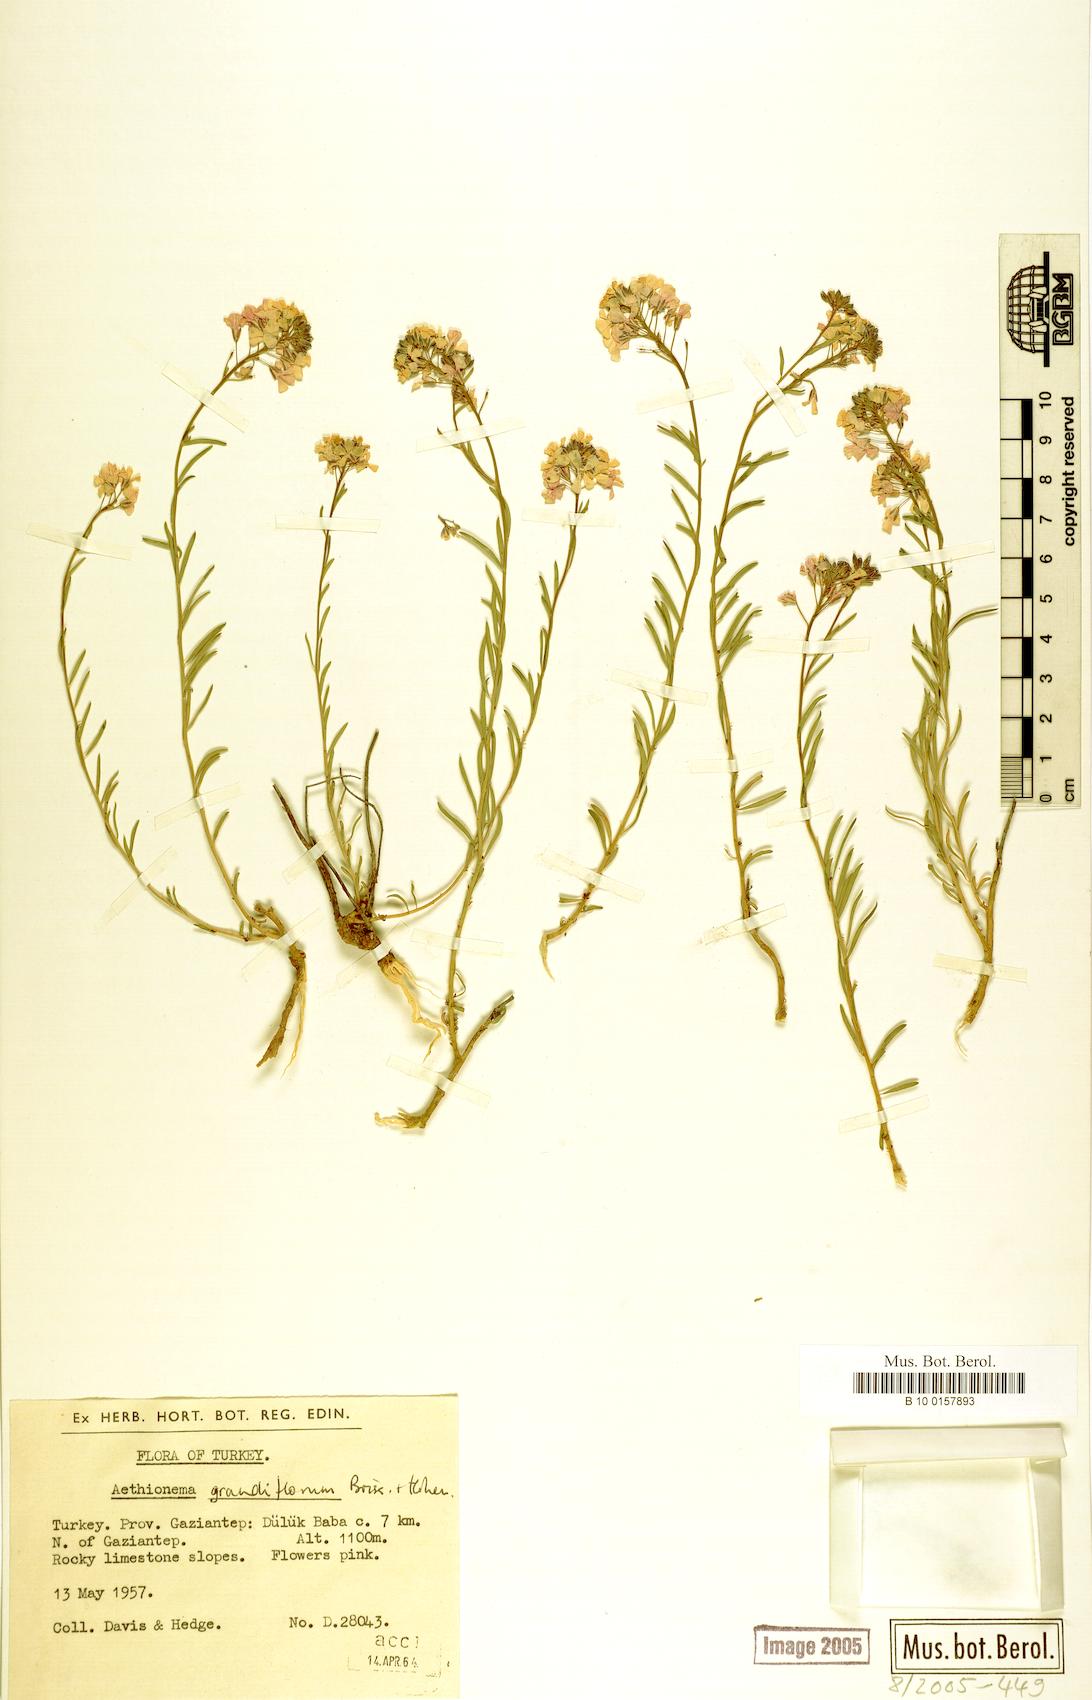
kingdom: Plantae
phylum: Tracheophyta
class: Magnoliopsida
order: Brassicales
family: Brassicaceae
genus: Aethionema
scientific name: Aethionema grandiflorum
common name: Persian stonecress
